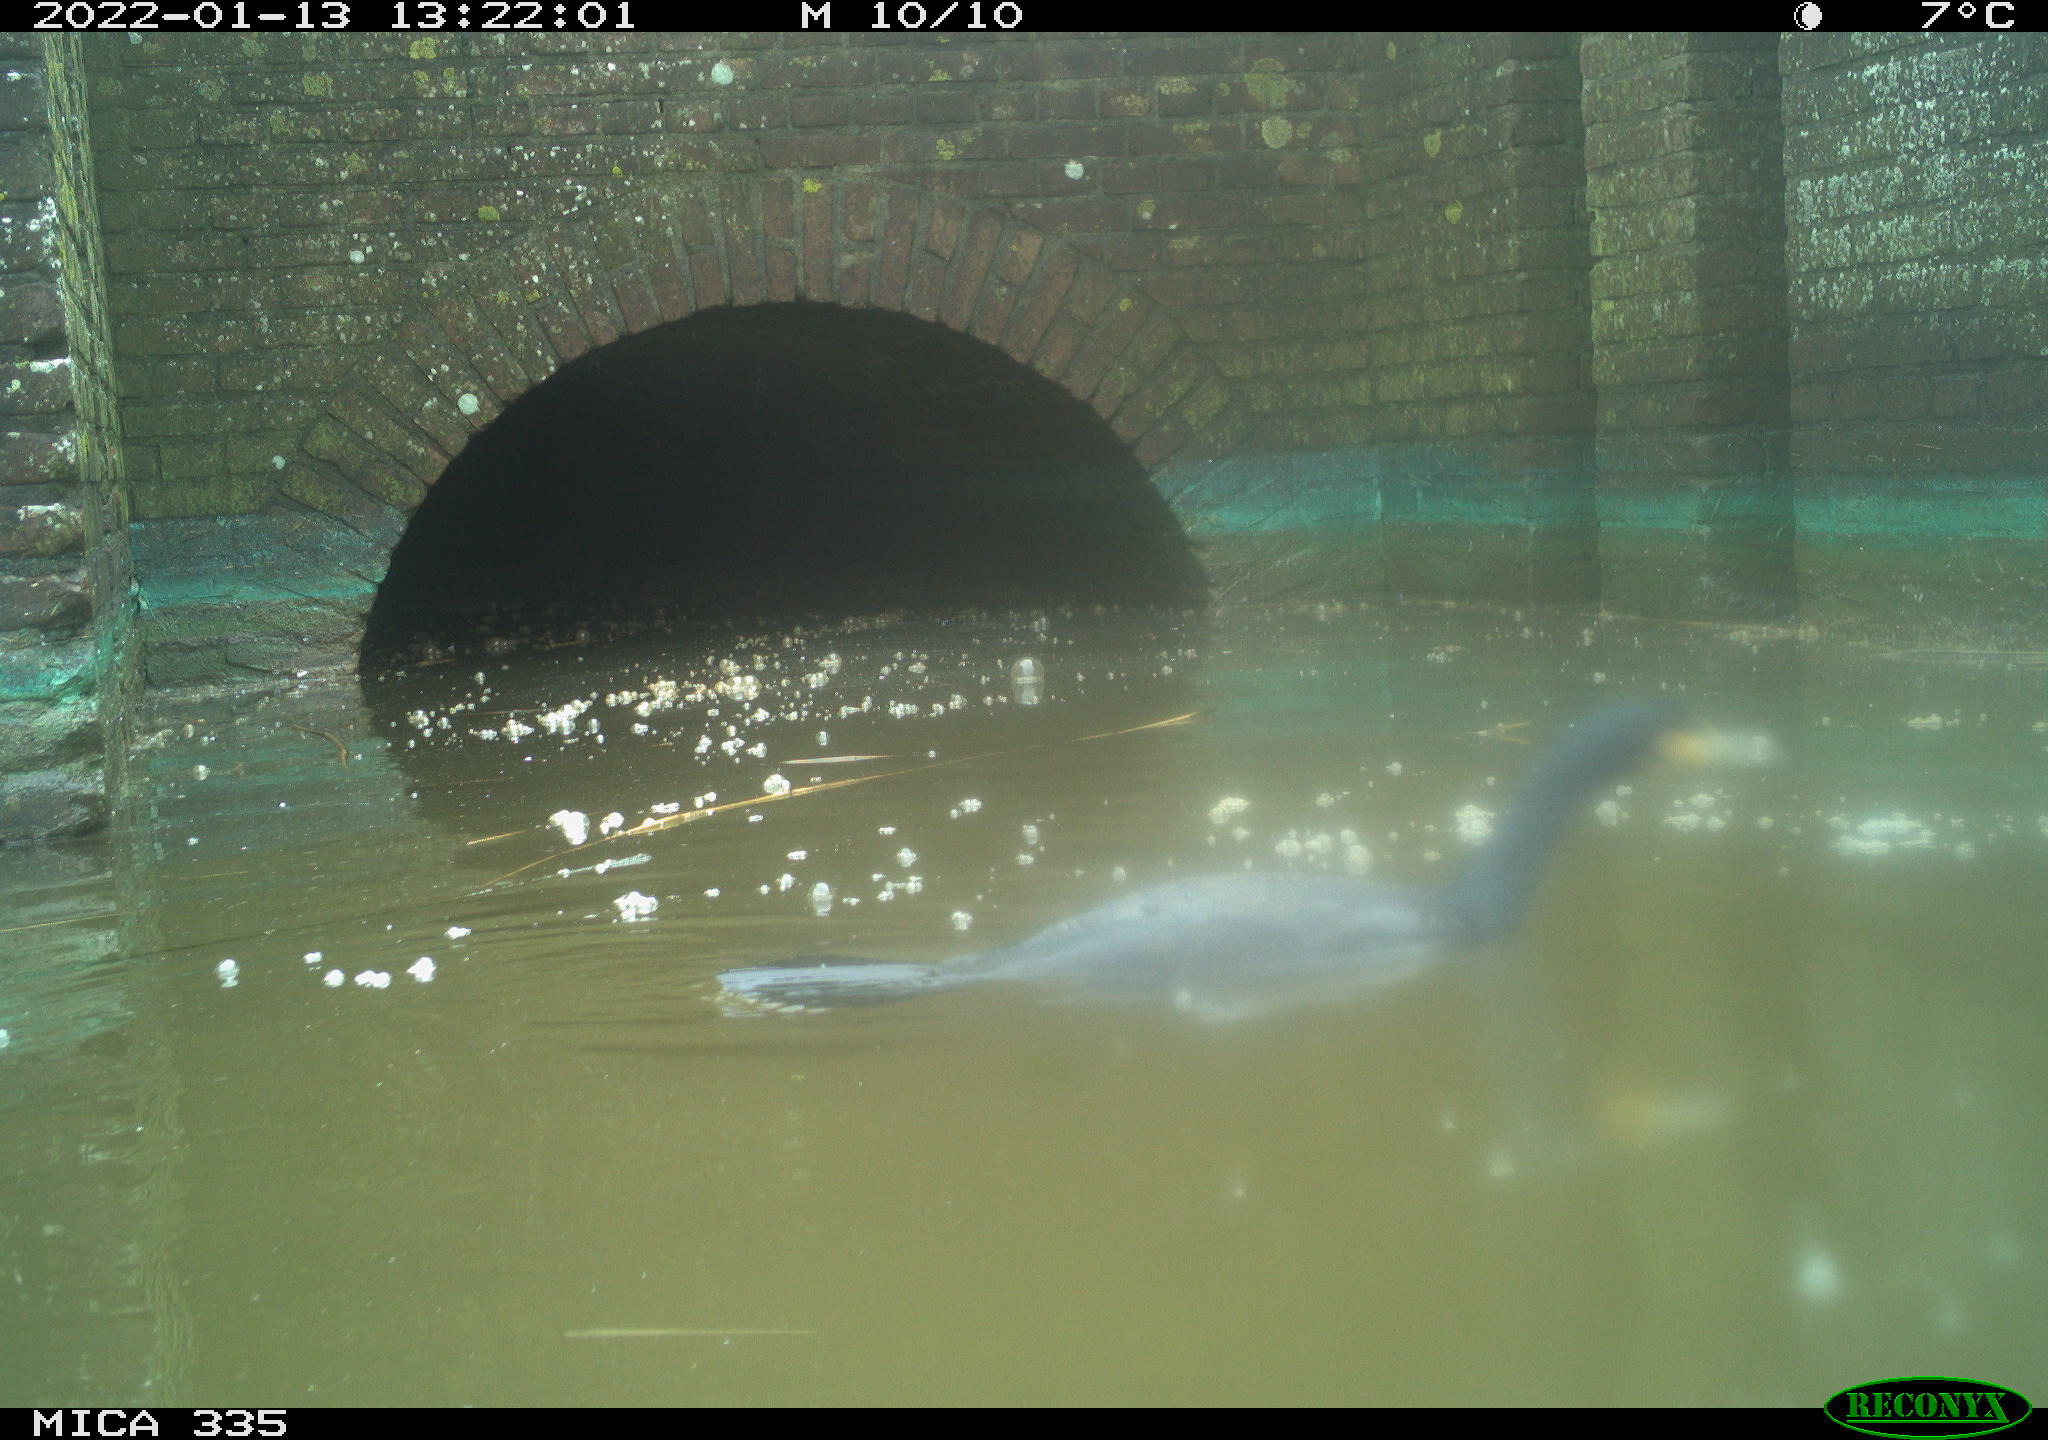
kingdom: Animalia
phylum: Chordata
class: Aves
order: Suliformes
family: Phalacrocoracidae
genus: Phalacrocorax
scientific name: Phalacrocorax carbo
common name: Great cormorant
